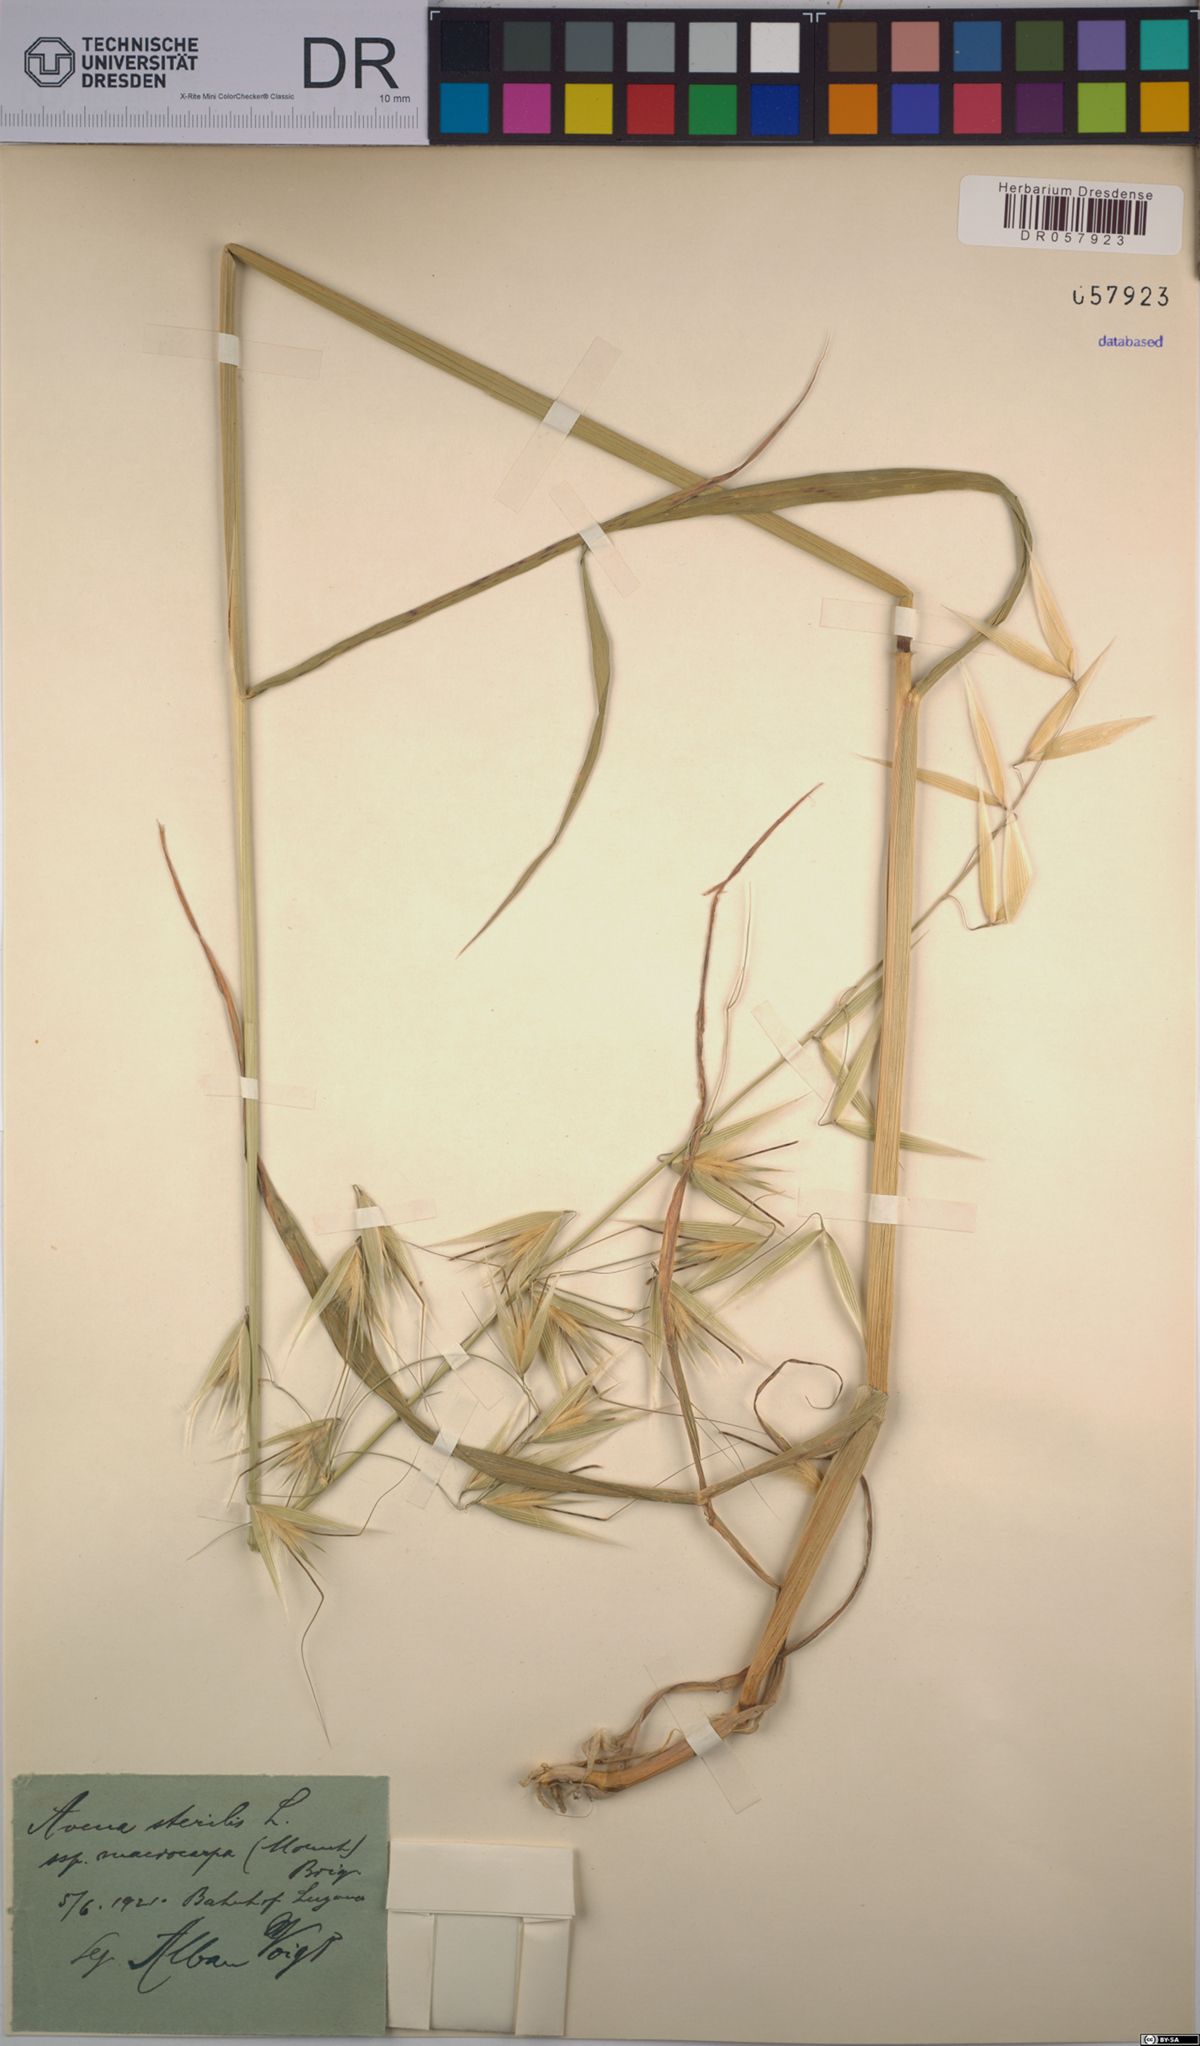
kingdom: Plantae
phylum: Tracheophyta
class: Liliopsida
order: Poales
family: Poaceae
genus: Avena
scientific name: Avena sterilis
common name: Animated oat
